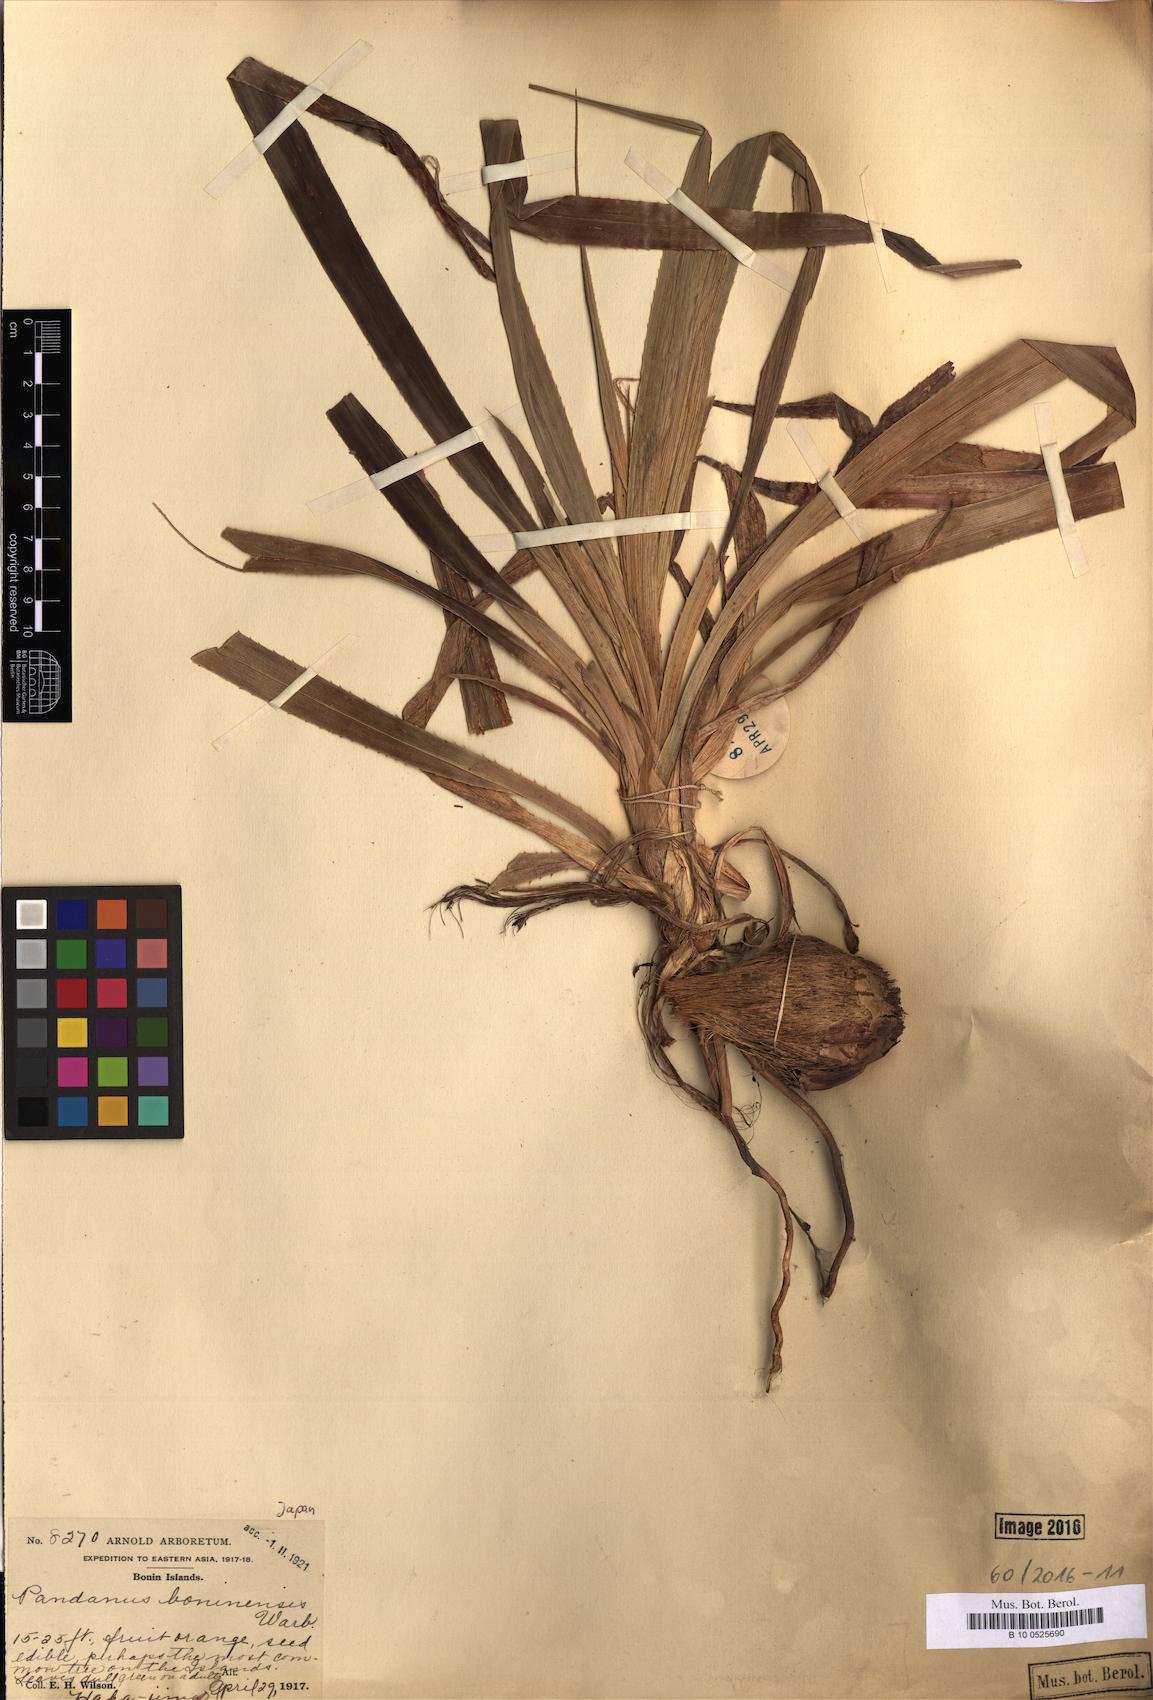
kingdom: Plantae
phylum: Tracheophyta
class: Liliopsida
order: Pandanales
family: Pandanaceae
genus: Pandanus
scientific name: Pandanus boninensis
